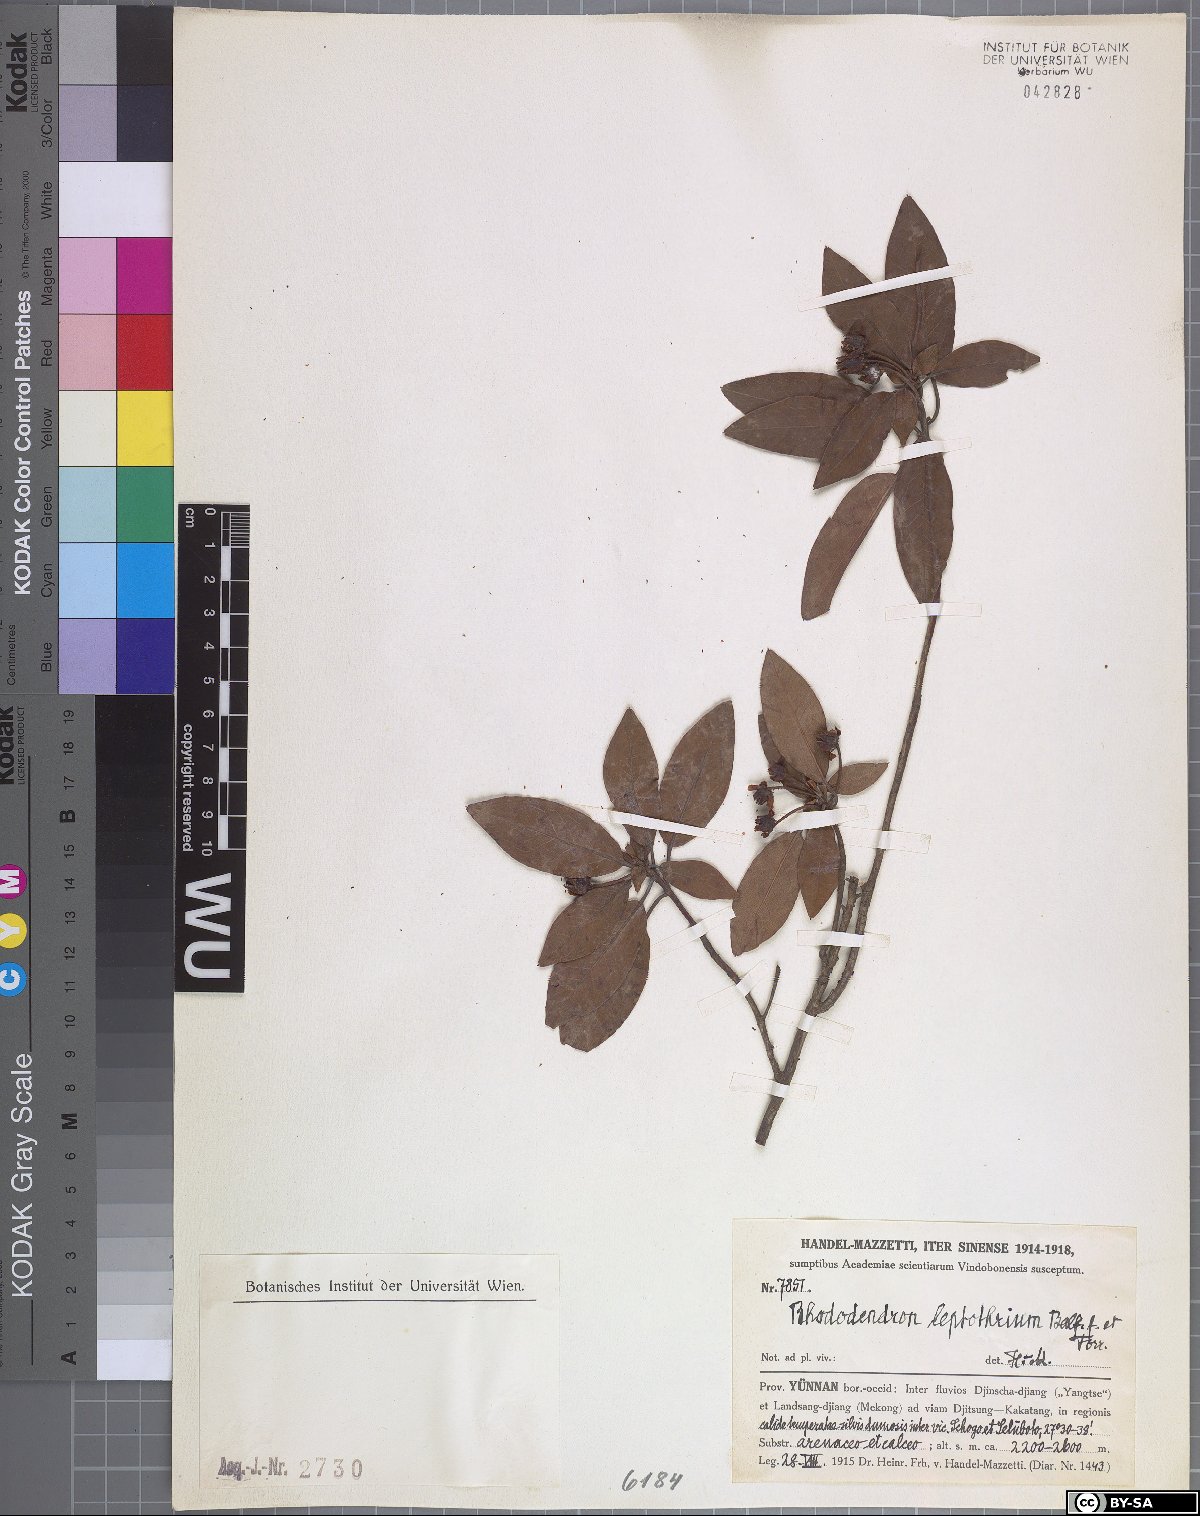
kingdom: Plantae
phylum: Tracheophyta
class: Magnoliopsida
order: Ericales
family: Ericaceae
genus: Rhododendron
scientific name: Rhododendron leptothrium
